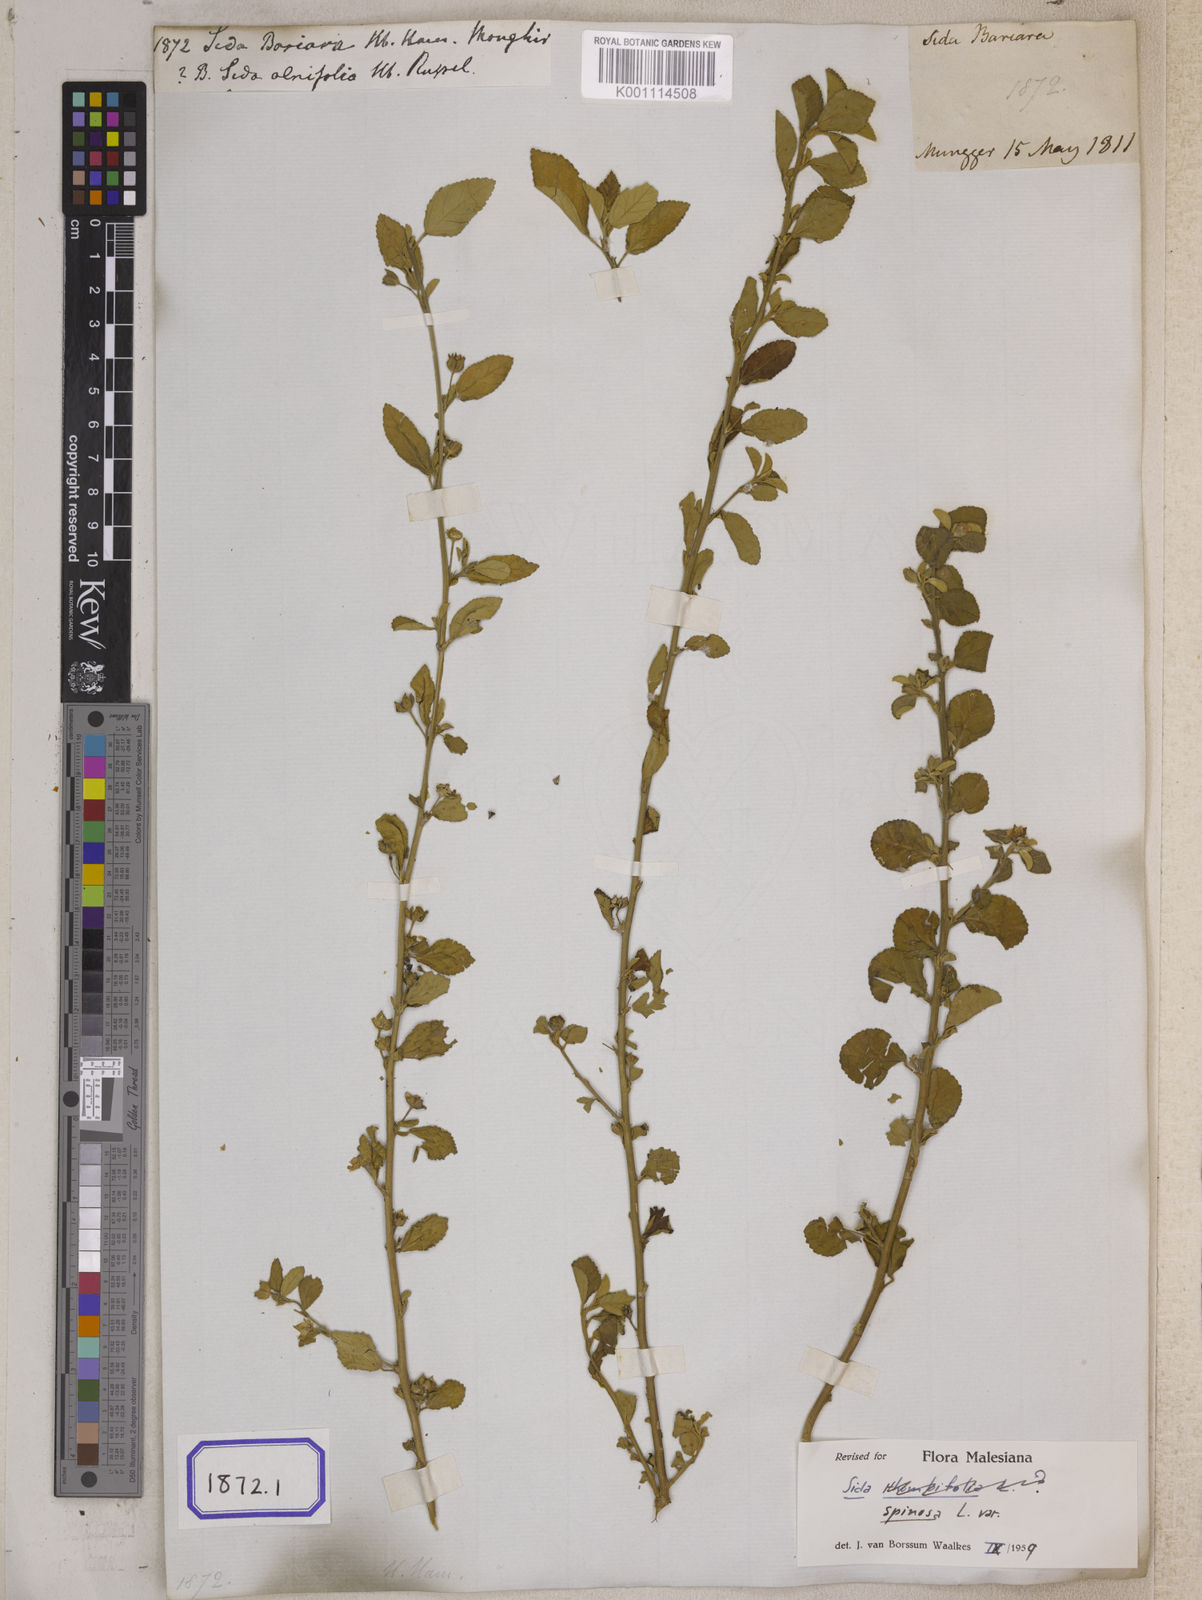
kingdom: Plantae
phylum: Tracheophyta
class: Magnoliopsida
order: Malvales
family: Malvaceae
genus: Sida
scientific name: Sida spinosa
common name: Prickly fanpetals
